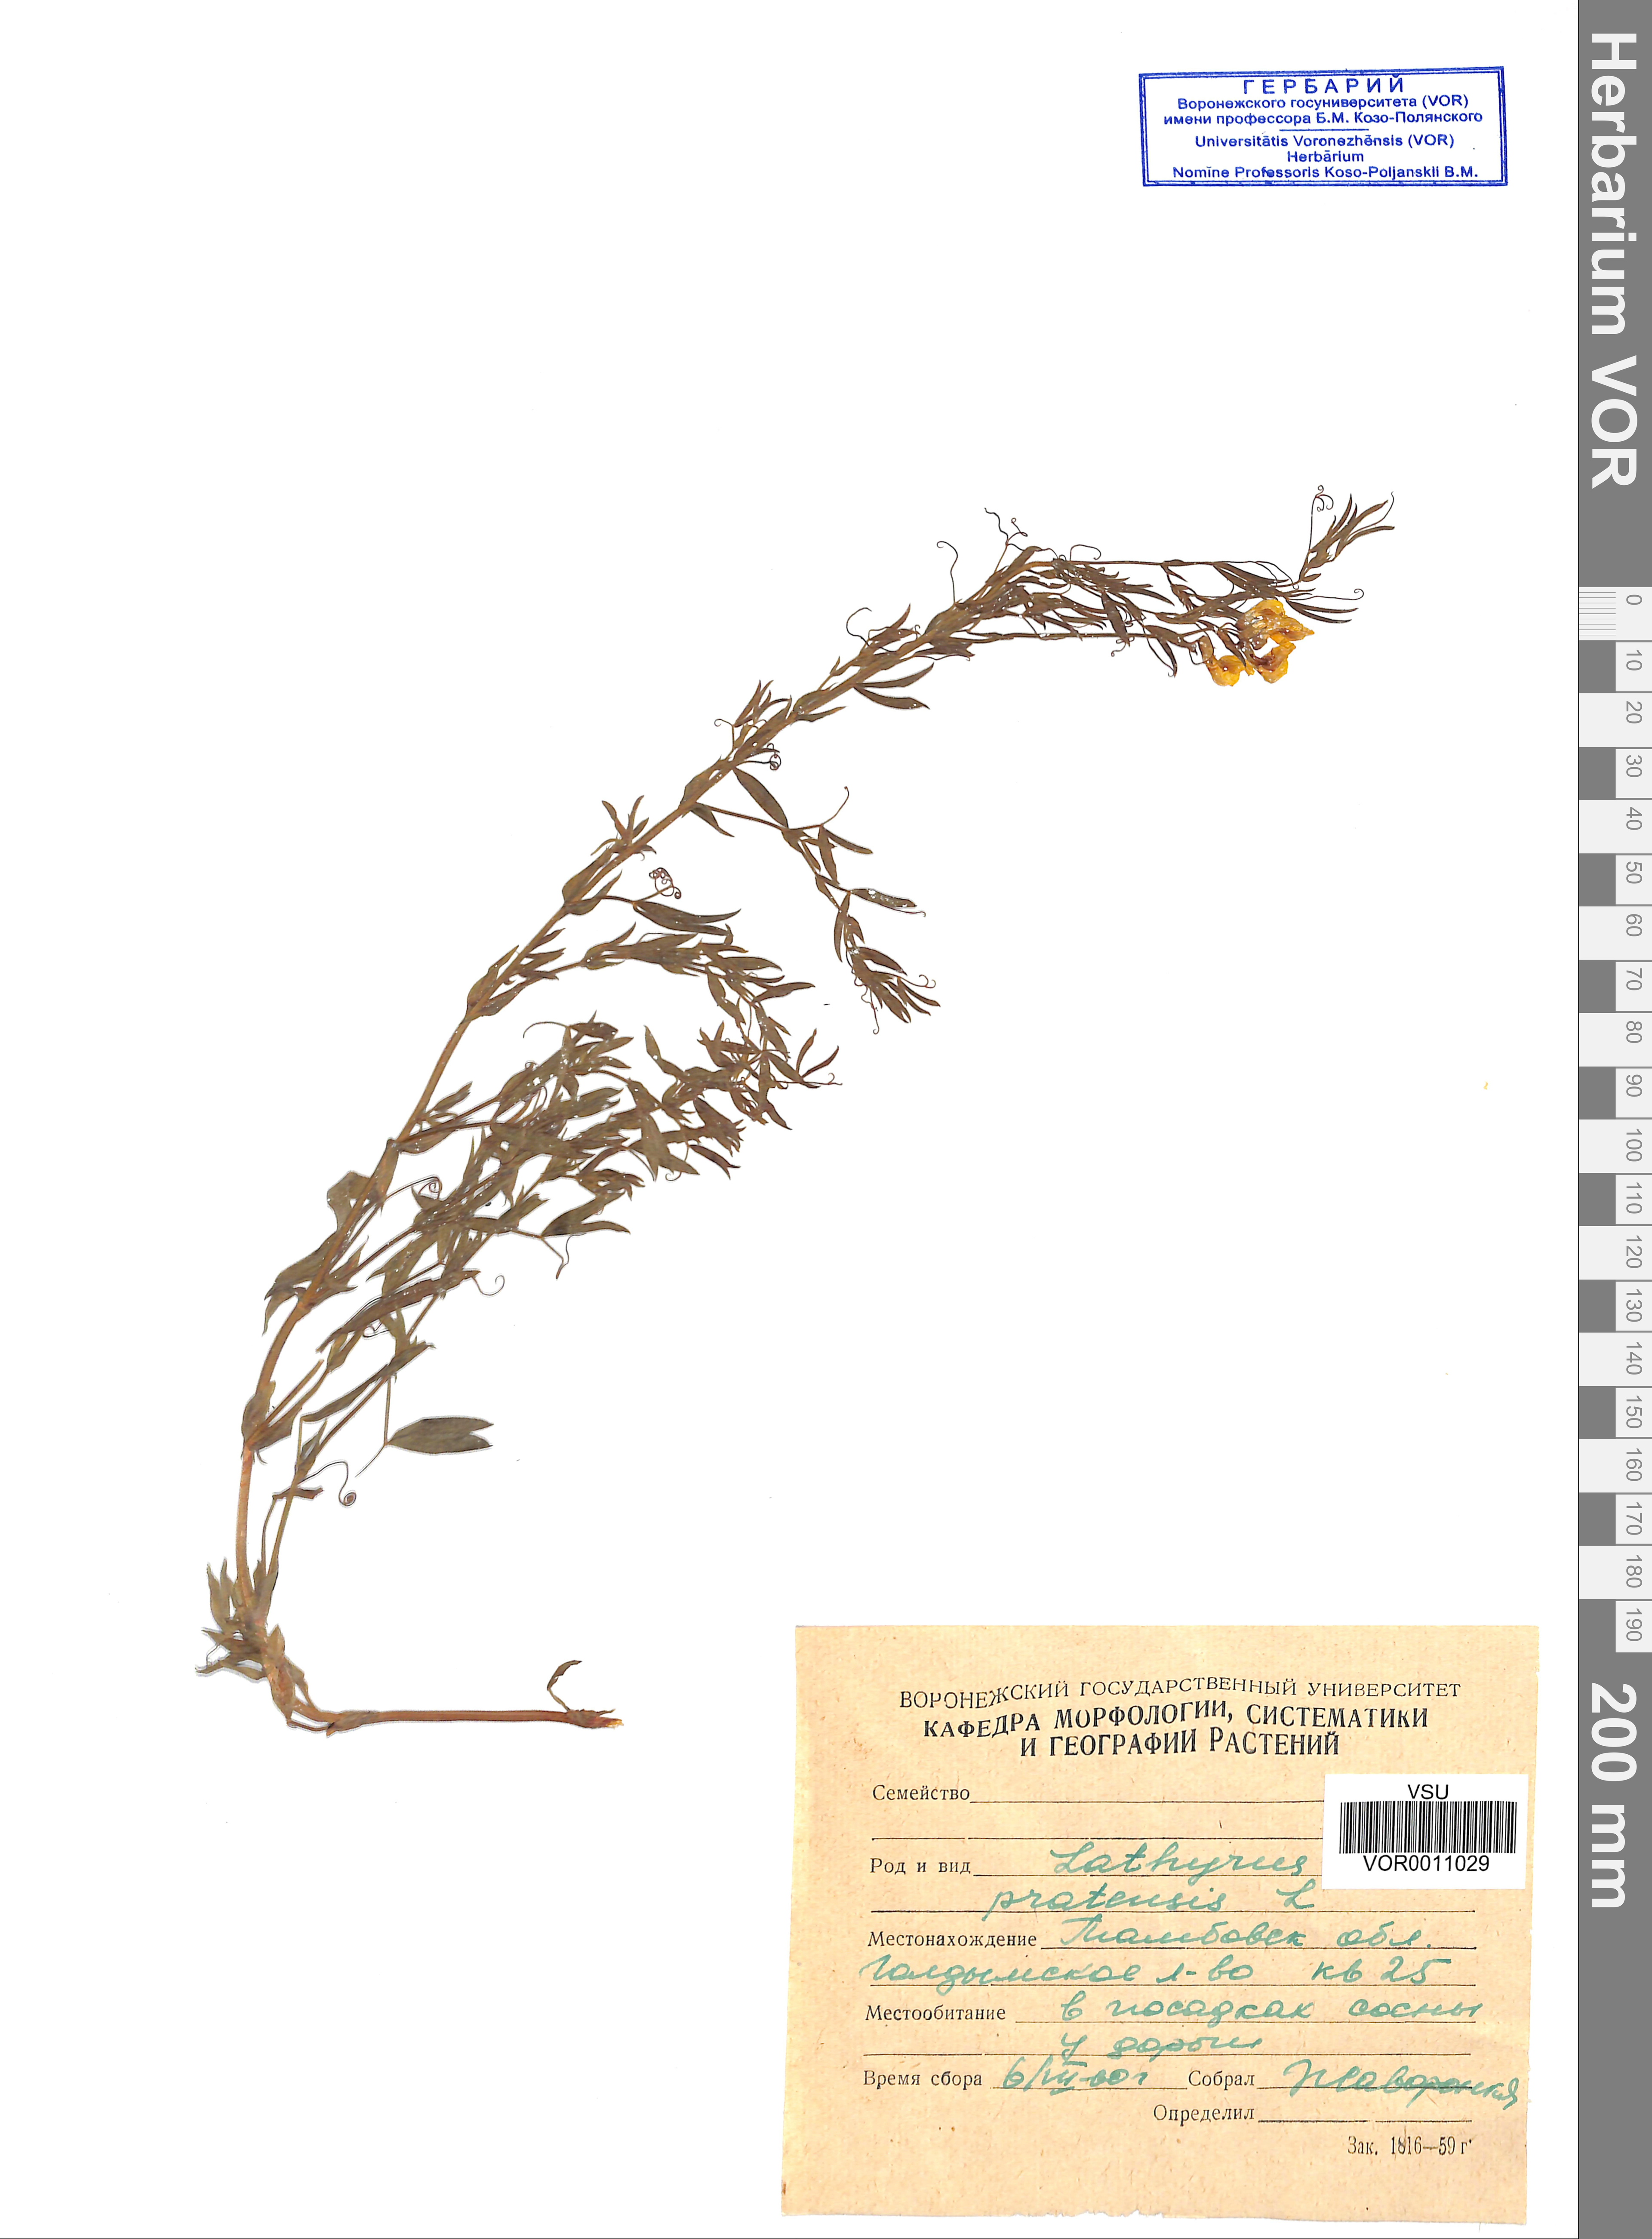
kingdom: Plantae
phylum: Tracheophyta
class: Magnoliopsida
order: Fabales
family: Fabaceae
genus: Lathyrus
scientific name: Lathyrus pratensis
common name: Meadow vetchling
